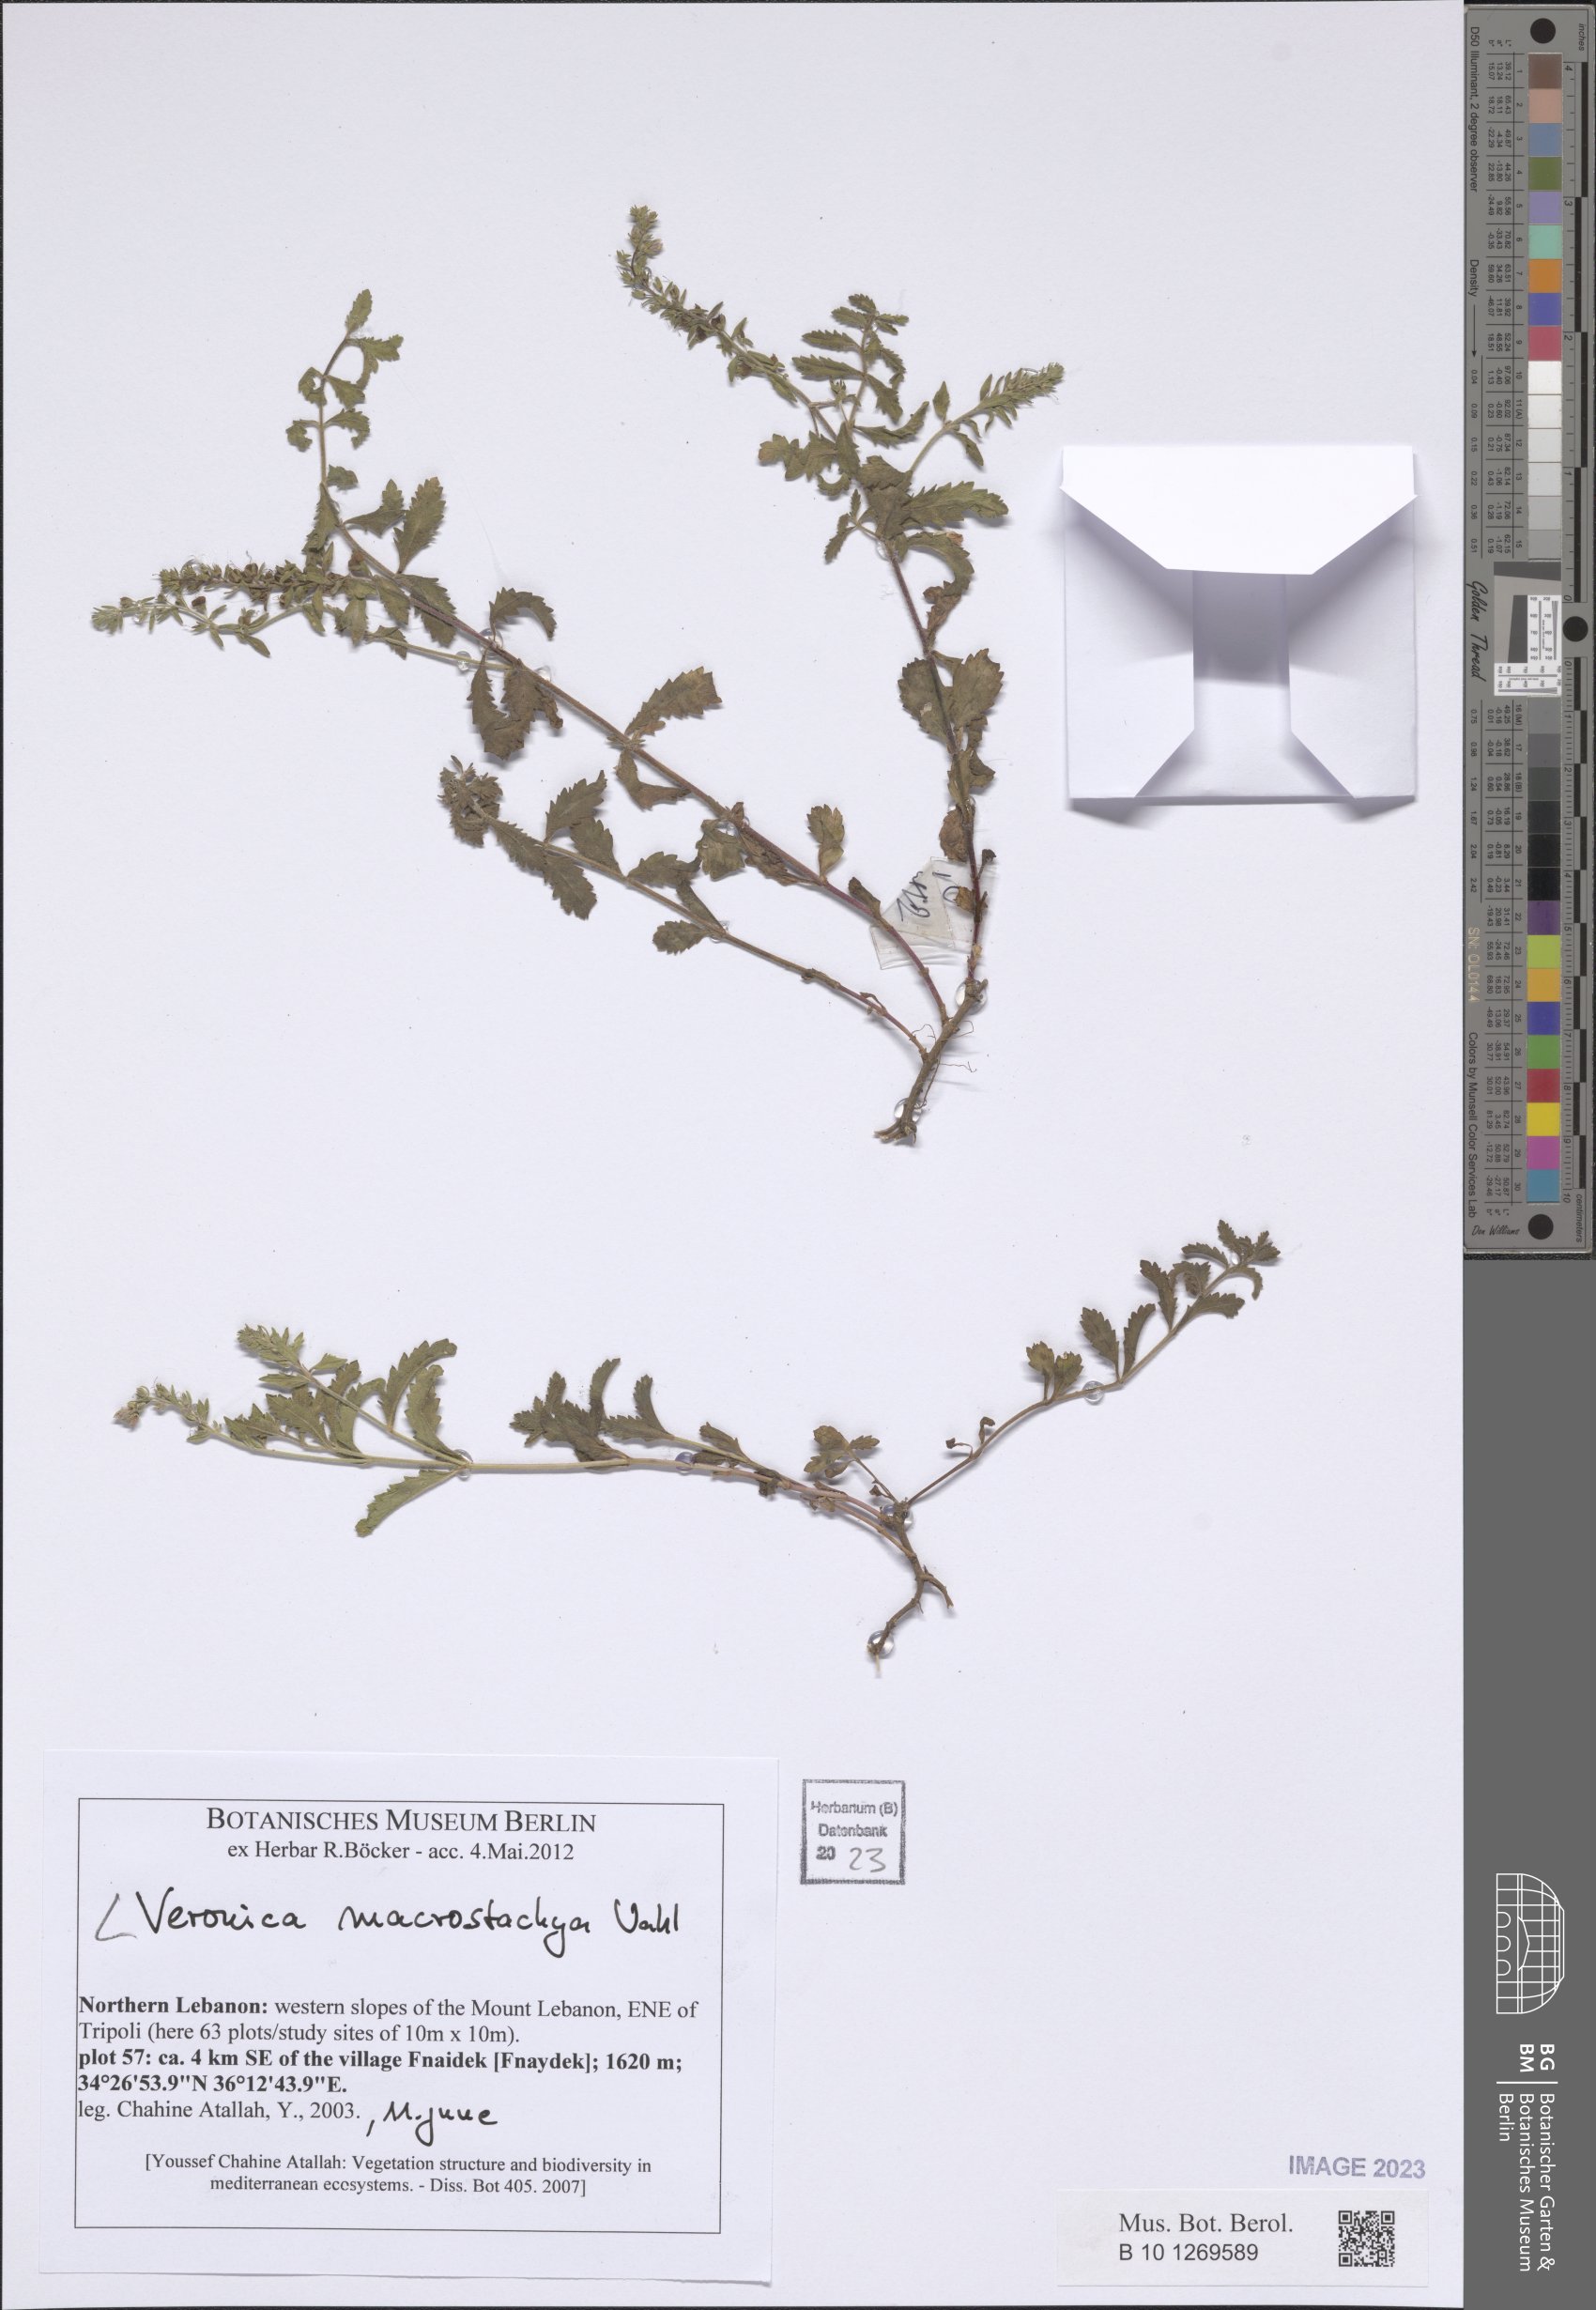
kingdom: Plantae
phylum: Tracheophyta
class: Magnoliopsida
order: Lamiales
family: Plantaginaceae
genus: Veronica
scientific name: Veronica macrostachya
